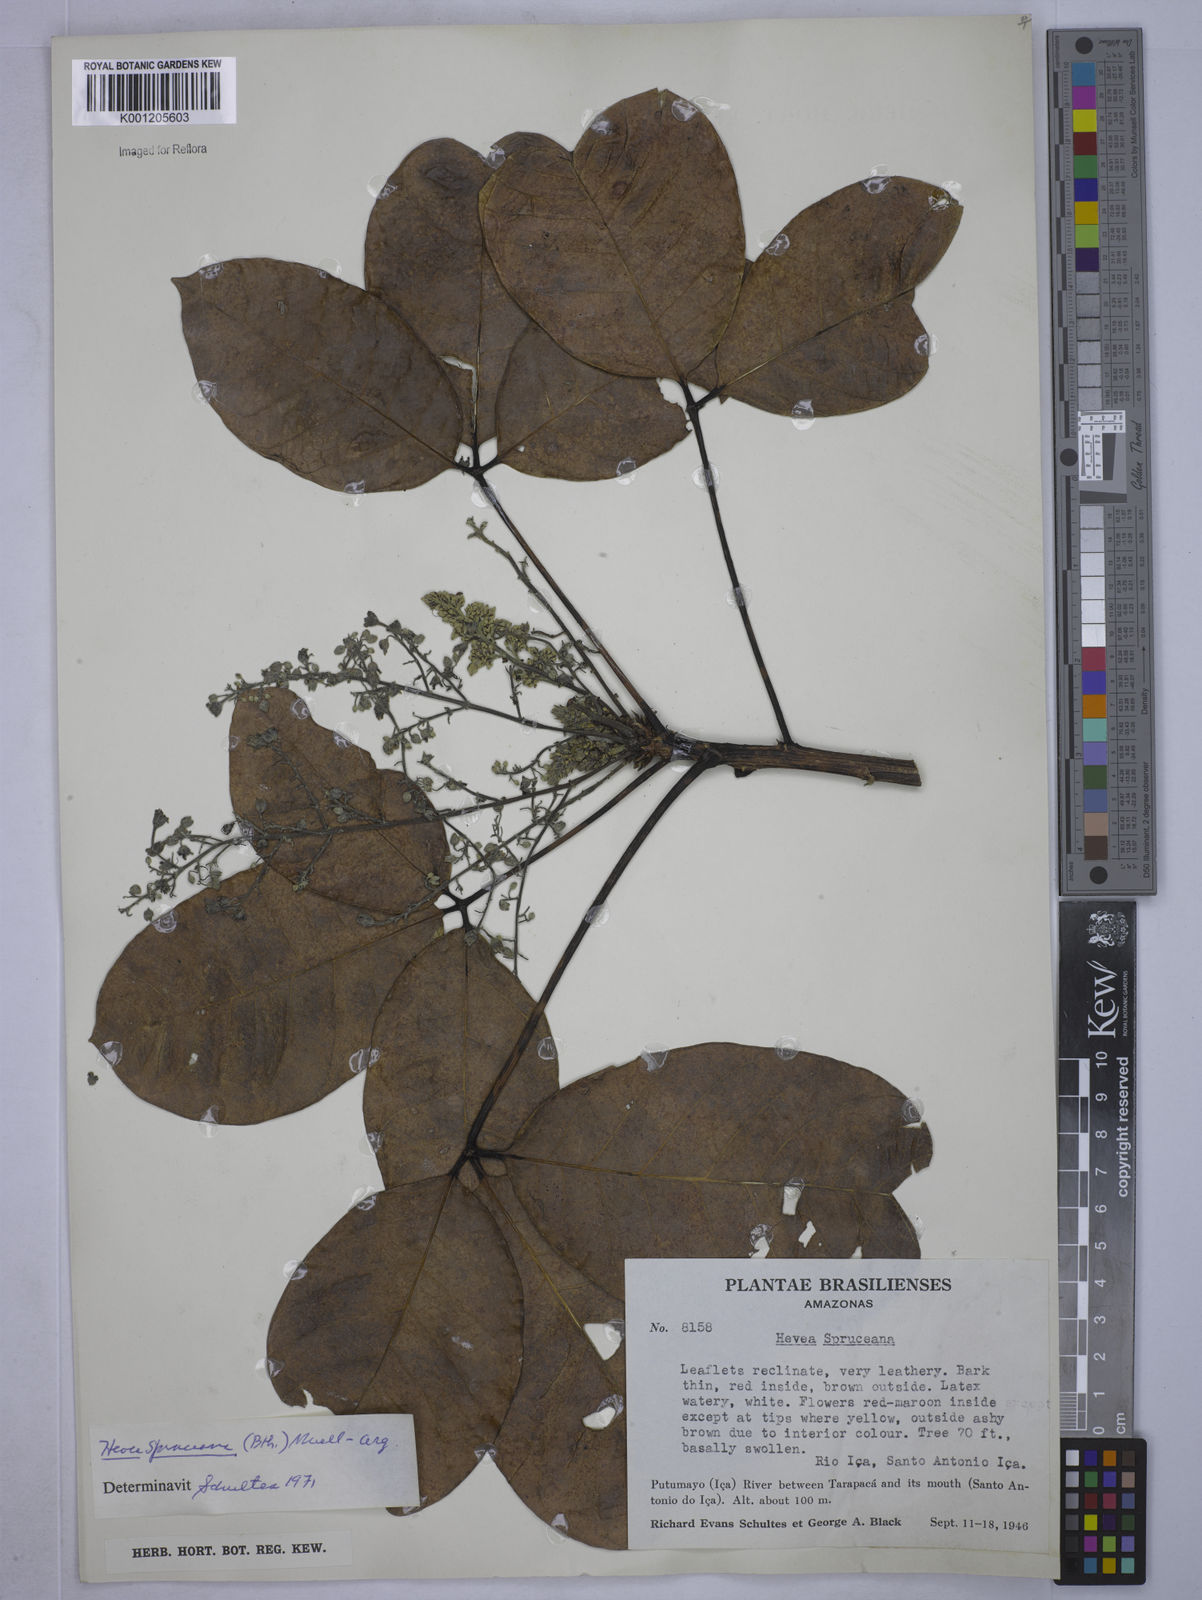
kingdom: Plantae
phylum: Tracheophyta
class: Magnoliopsida
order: Malpighiales
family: Euphorbiaceae
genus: Hevea
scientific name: Hevea
